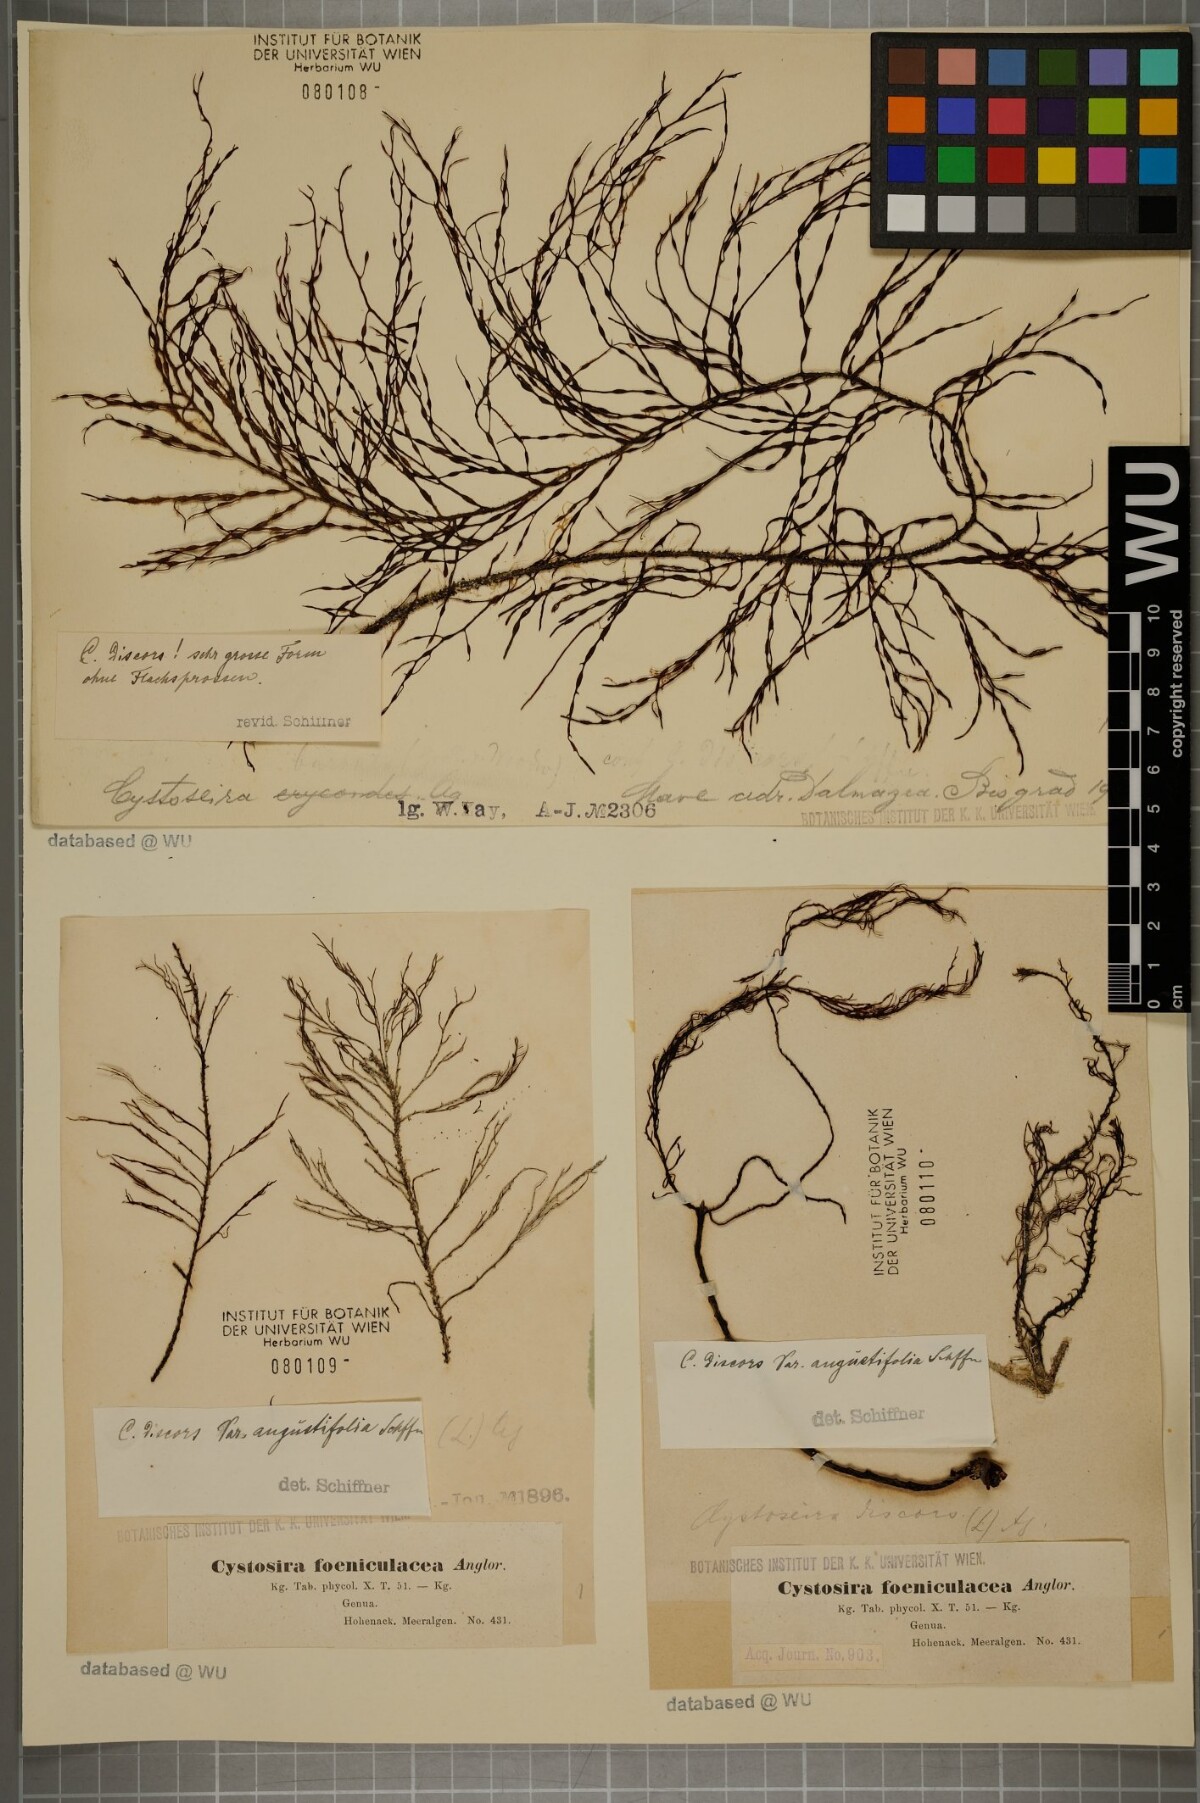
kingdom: Chromista
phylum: Ochrophyta
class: Phaeophyceae
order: Fucales
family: Sargassaceae
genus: Cystoseira
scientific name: Cystoseira foeniculacea
